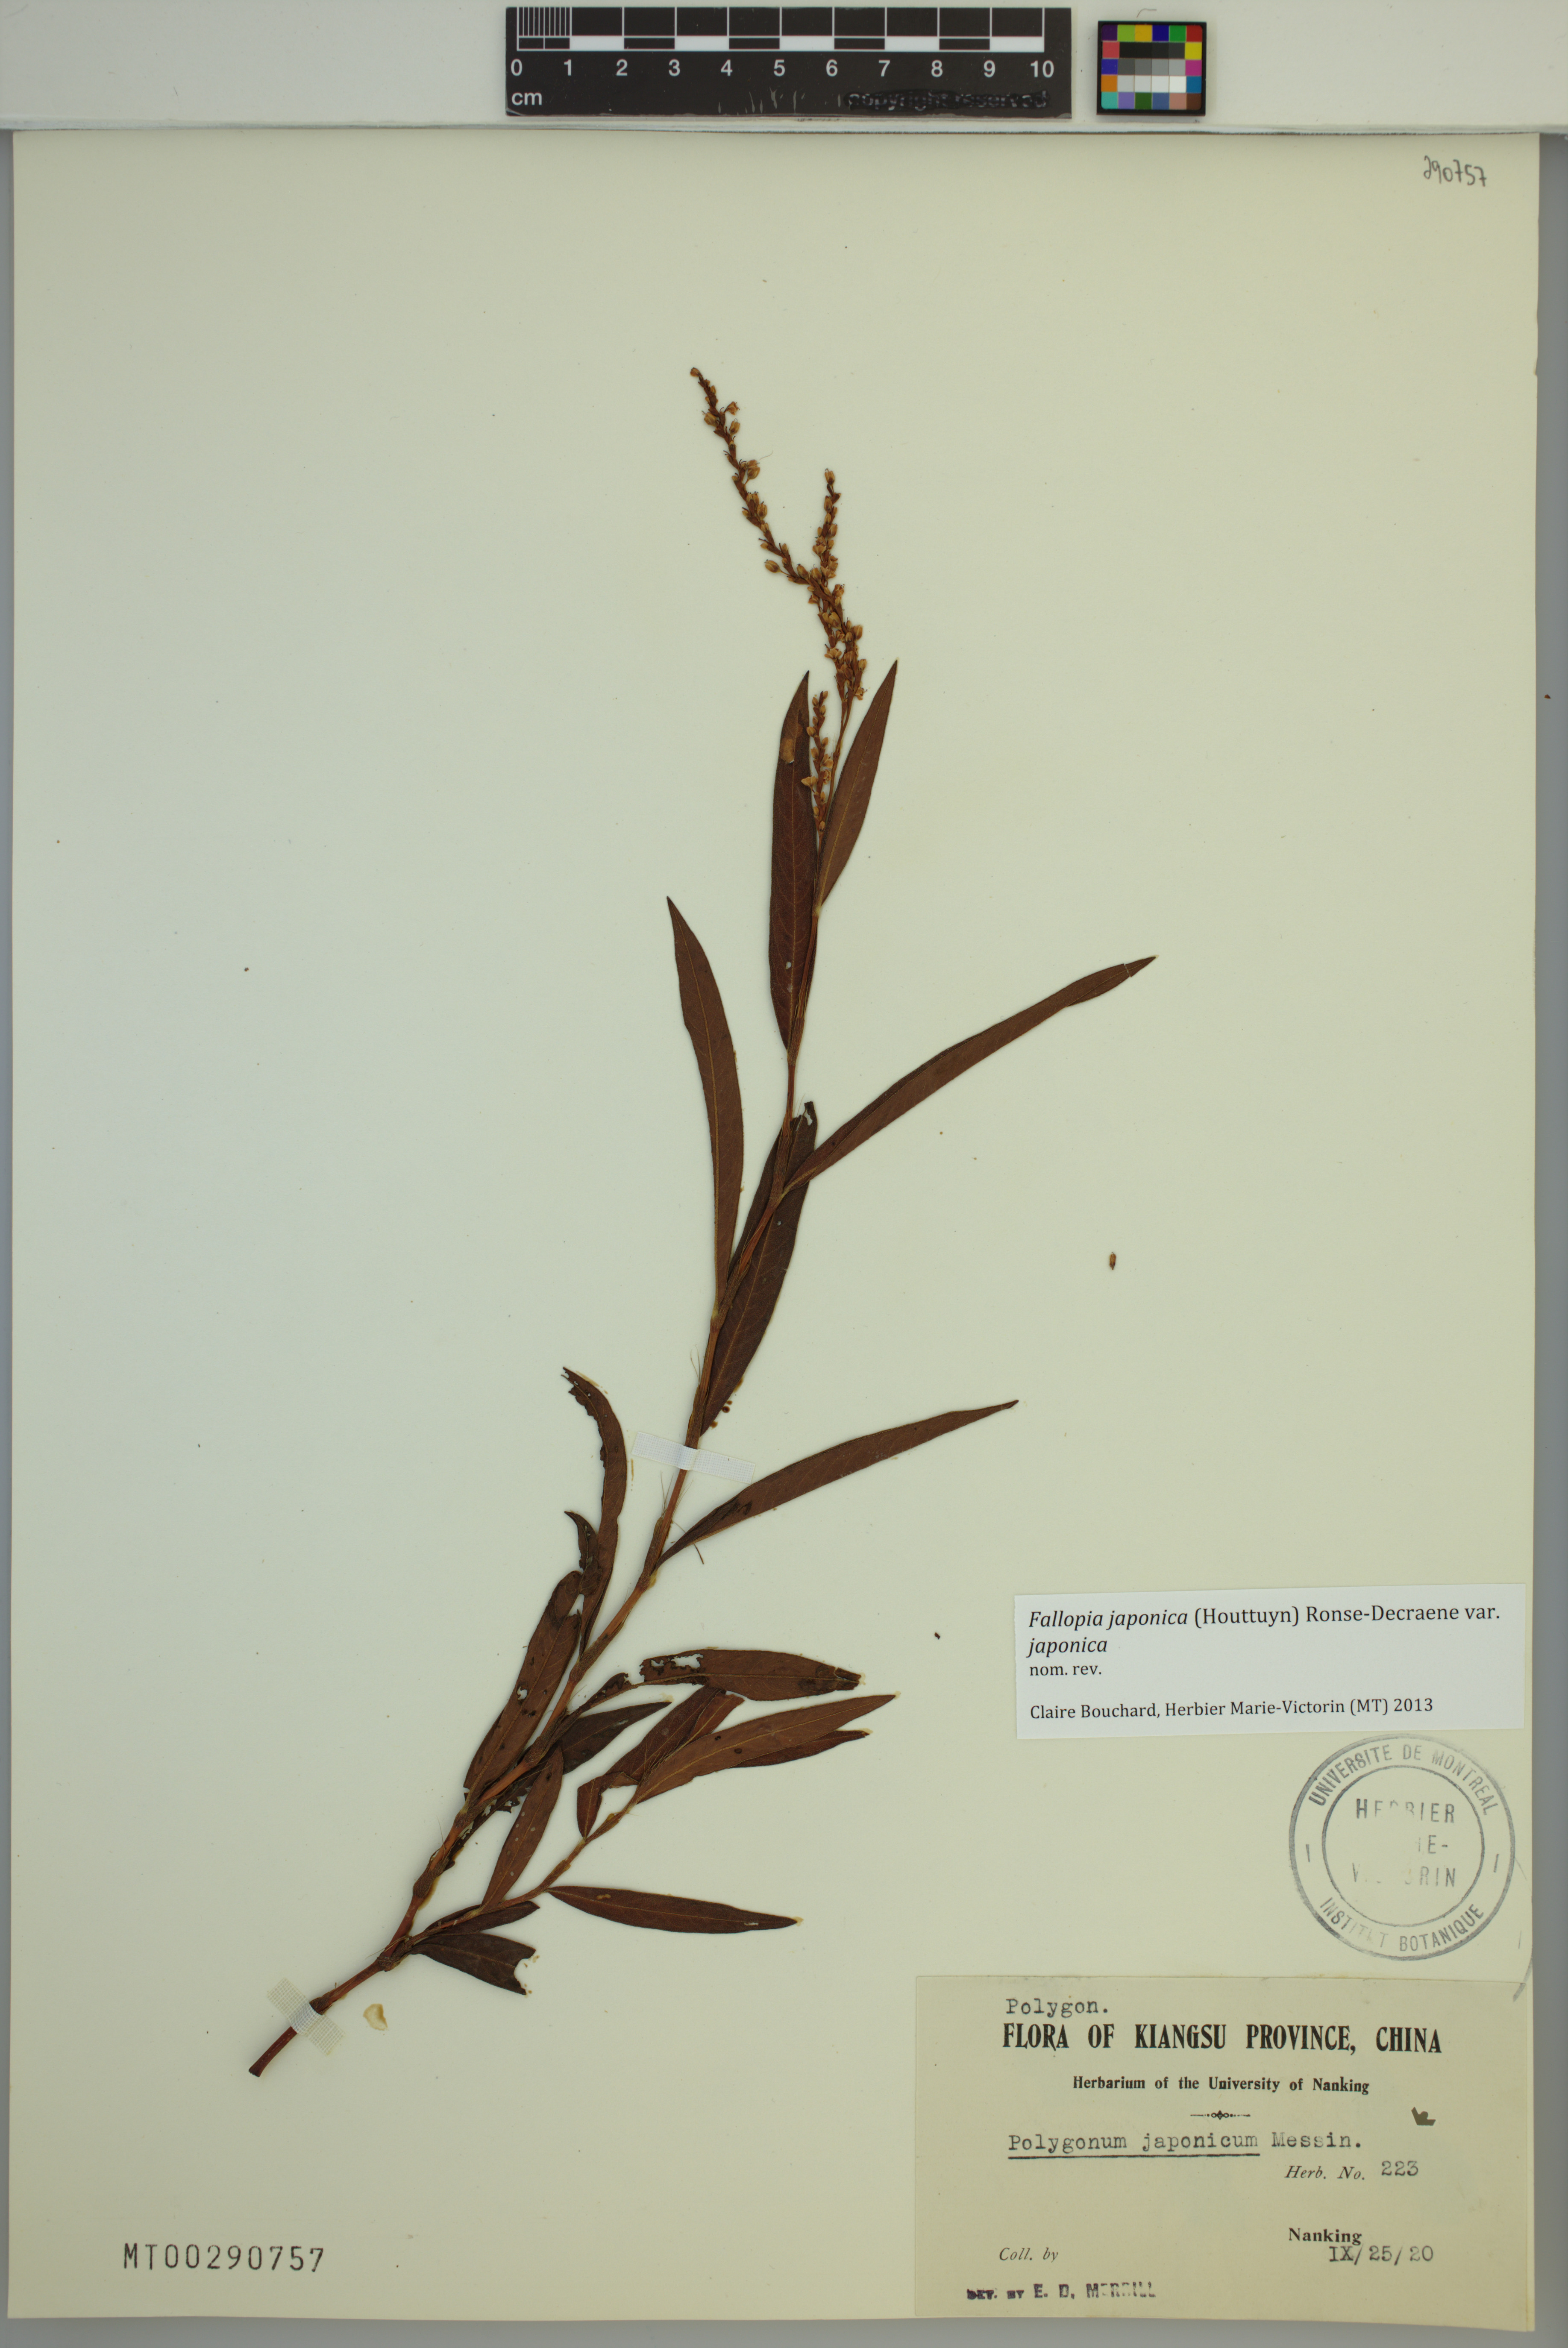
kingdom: Plantae
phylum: Tracheophyta
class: Magnoliopsida
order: Caryophyllales
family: Polygonaceae
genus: Reynoutria
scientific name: Reynoutria japonica
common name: Japanese knotweed
